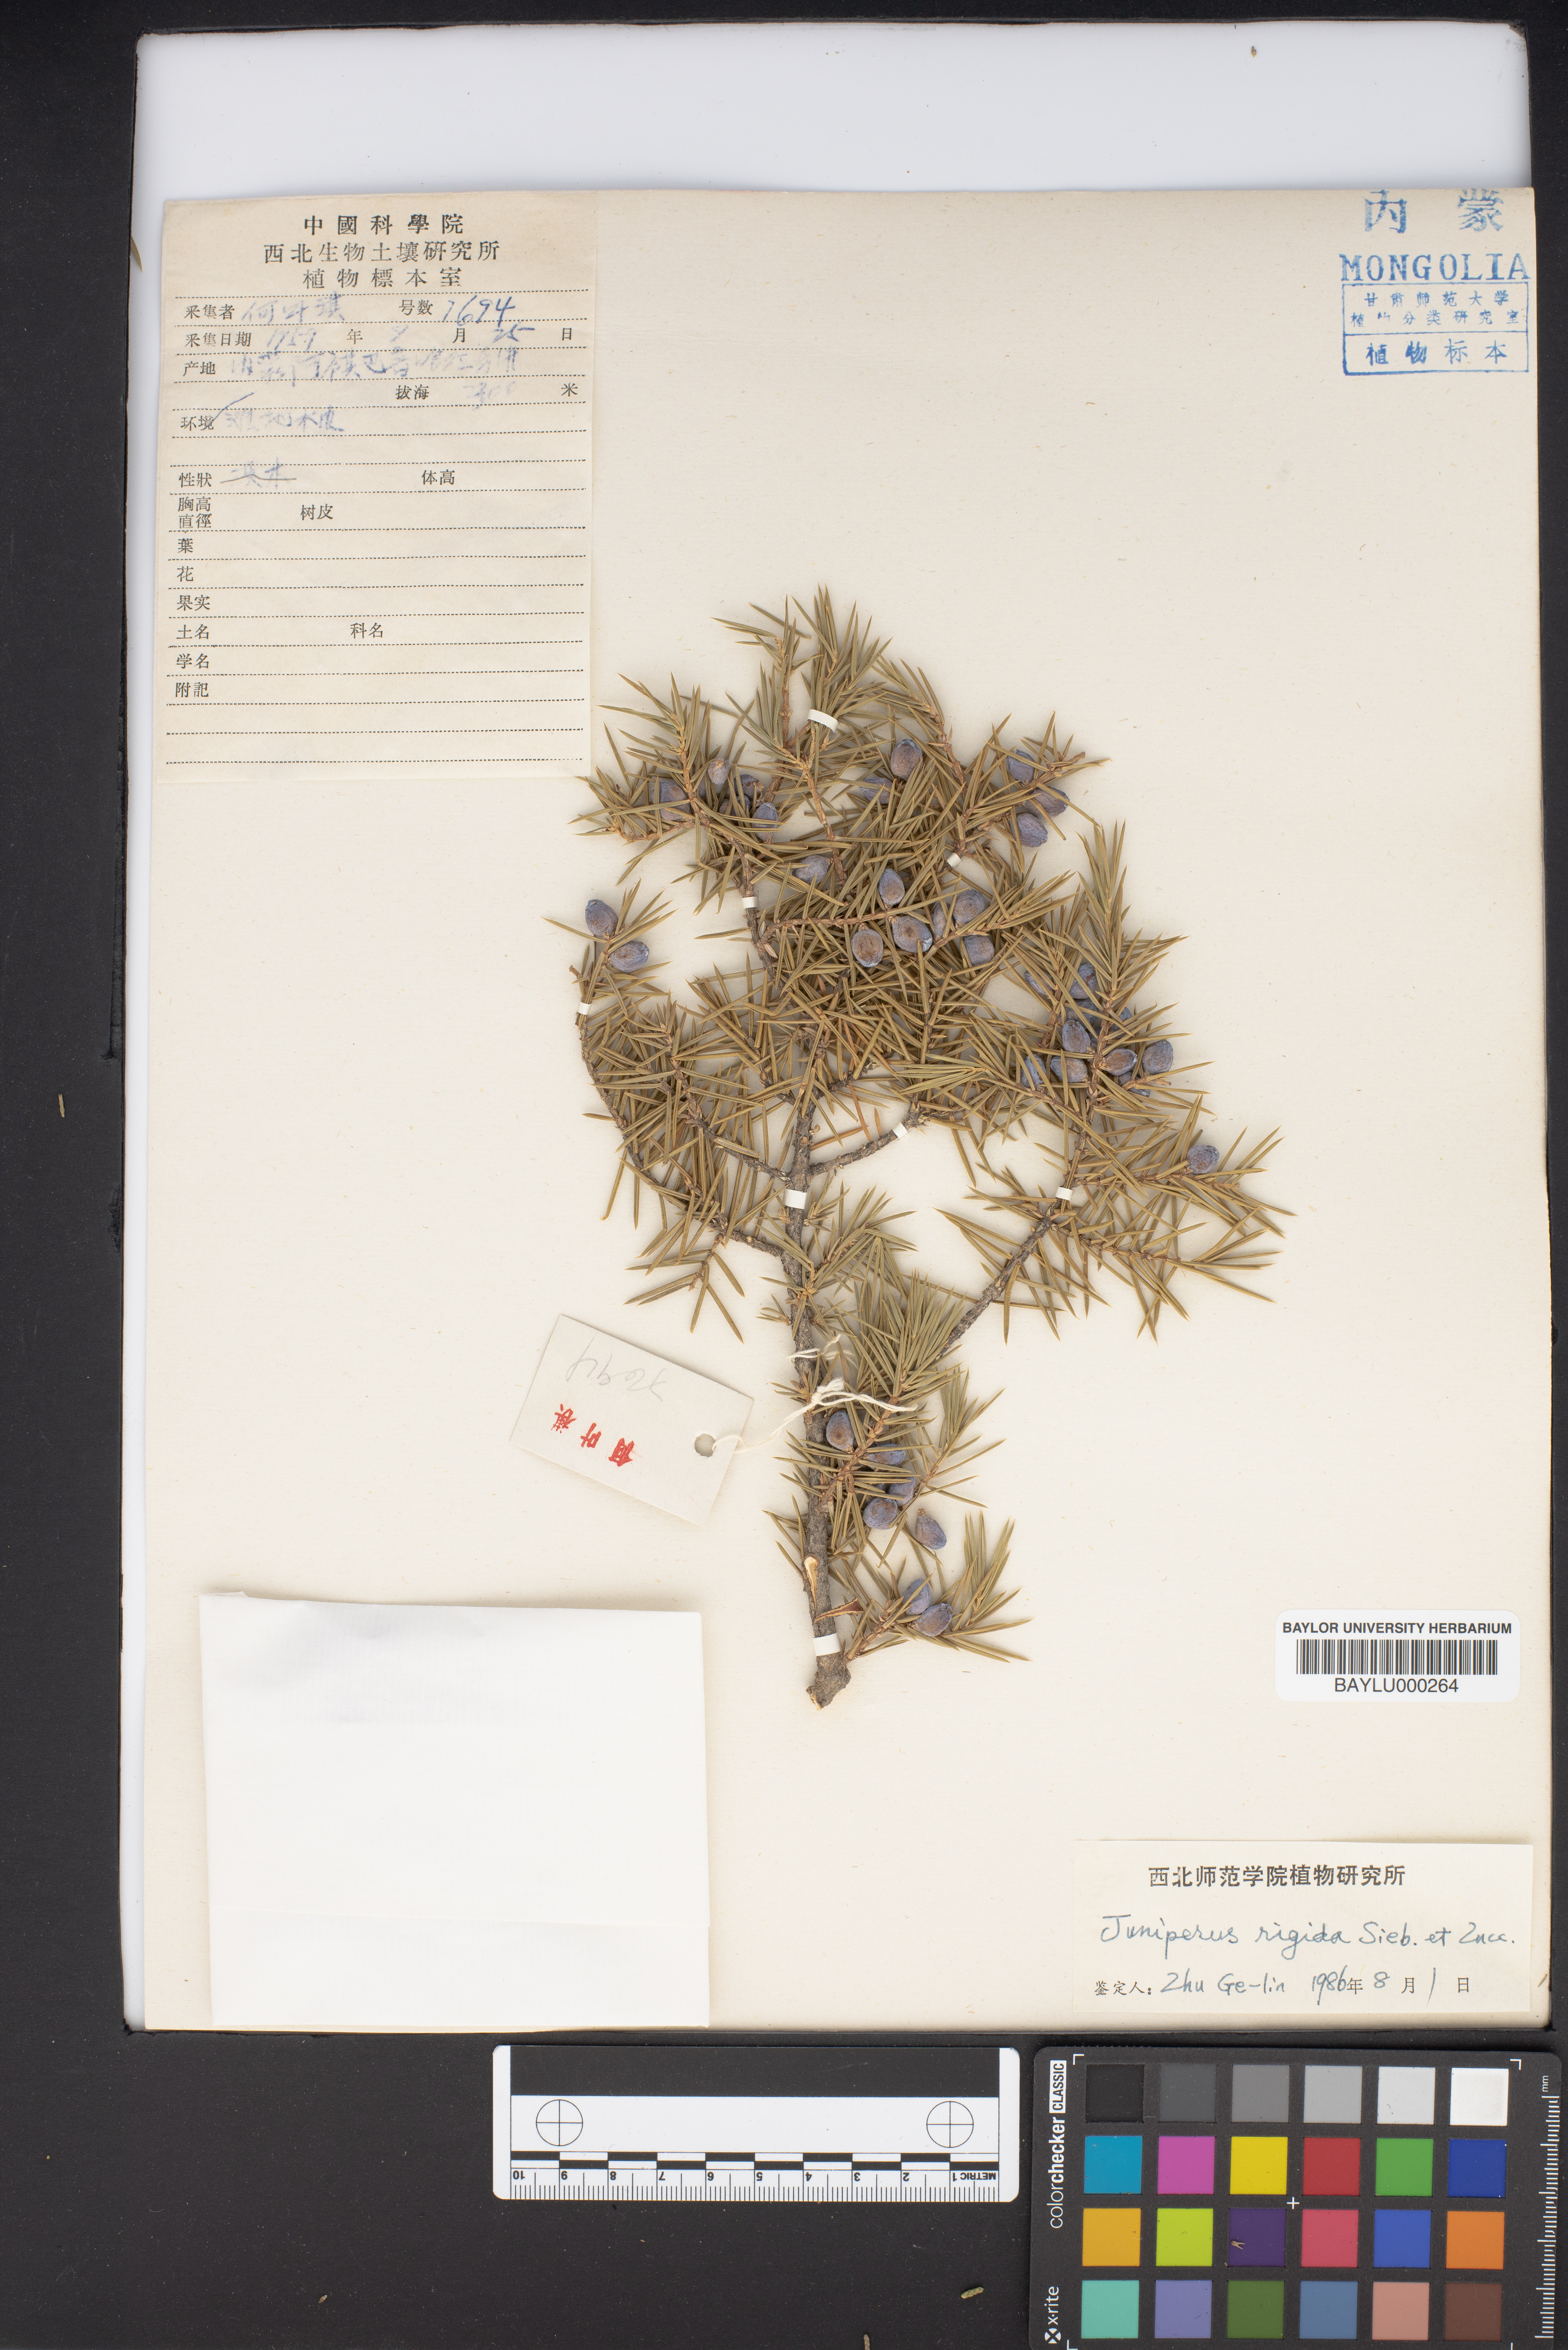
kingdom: Plantae
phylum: Tracheophyta
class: Pinopsida
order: Pinales
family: Cupressaceae
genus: Juniperus
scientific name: Juniperus rigida
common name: Needle juniper
